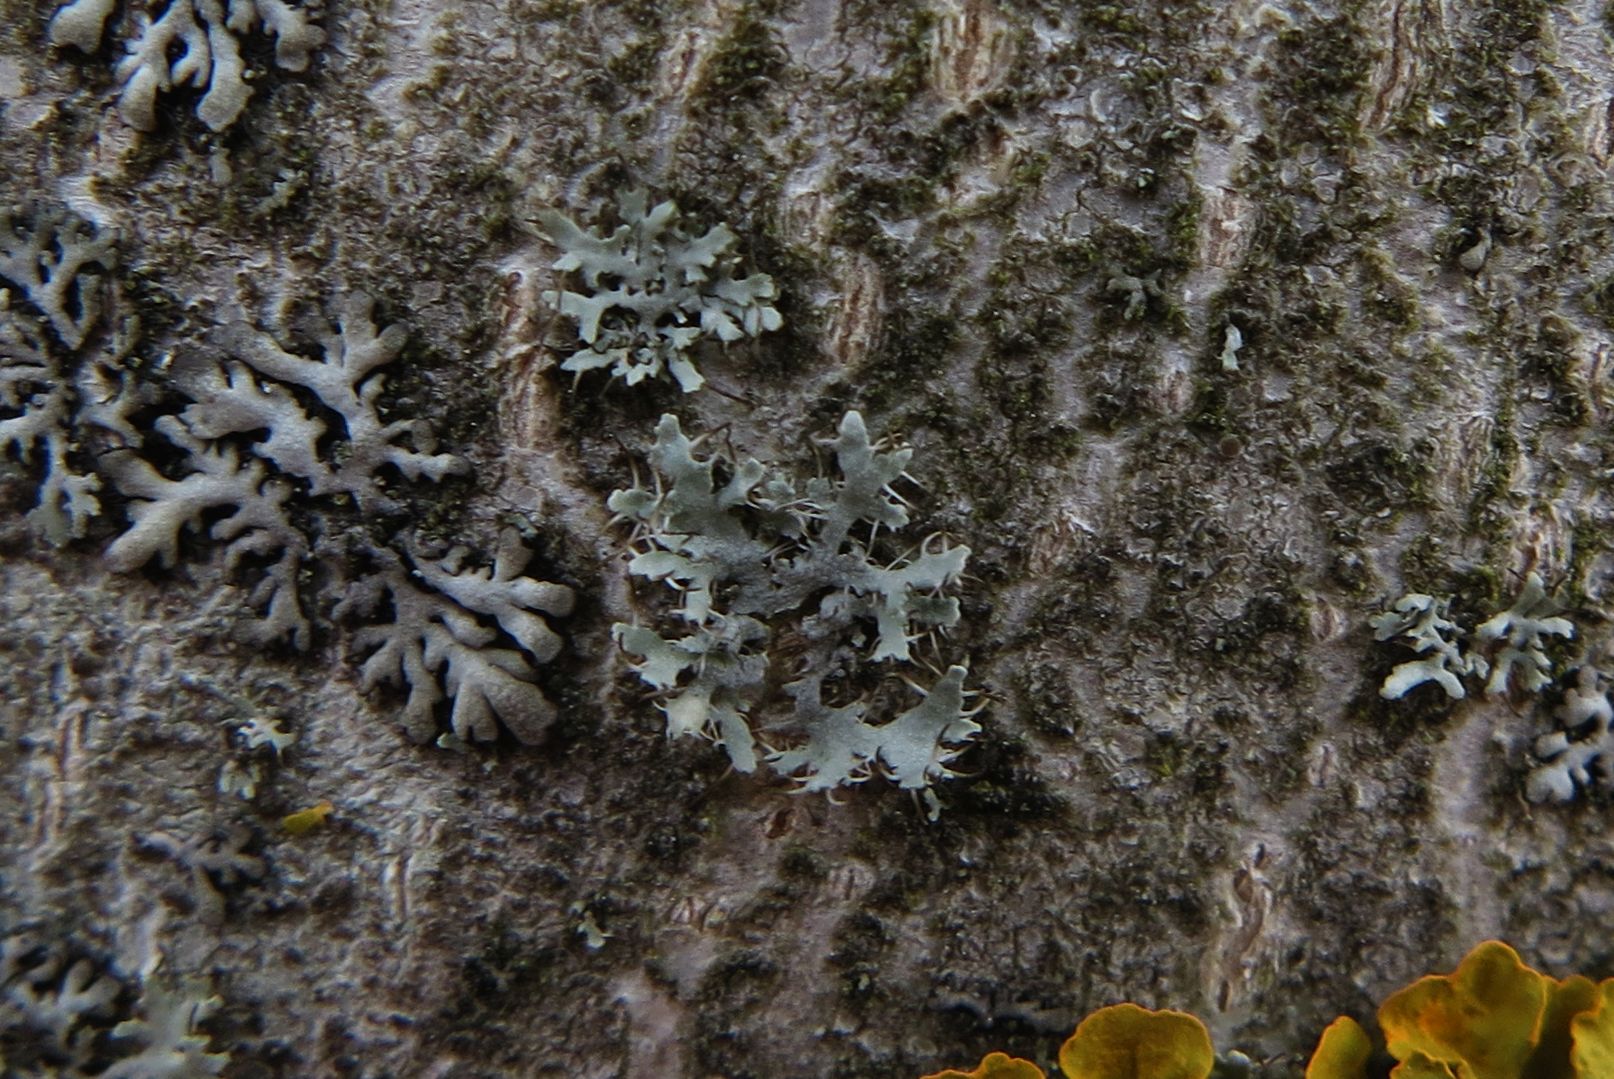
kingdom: Fungi
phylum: Ascomycota
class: Lecanoromycetes
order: Caliciales
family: Physciaceae
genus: Physcia
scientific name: Physcia tenella
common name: spæd rosetlav
